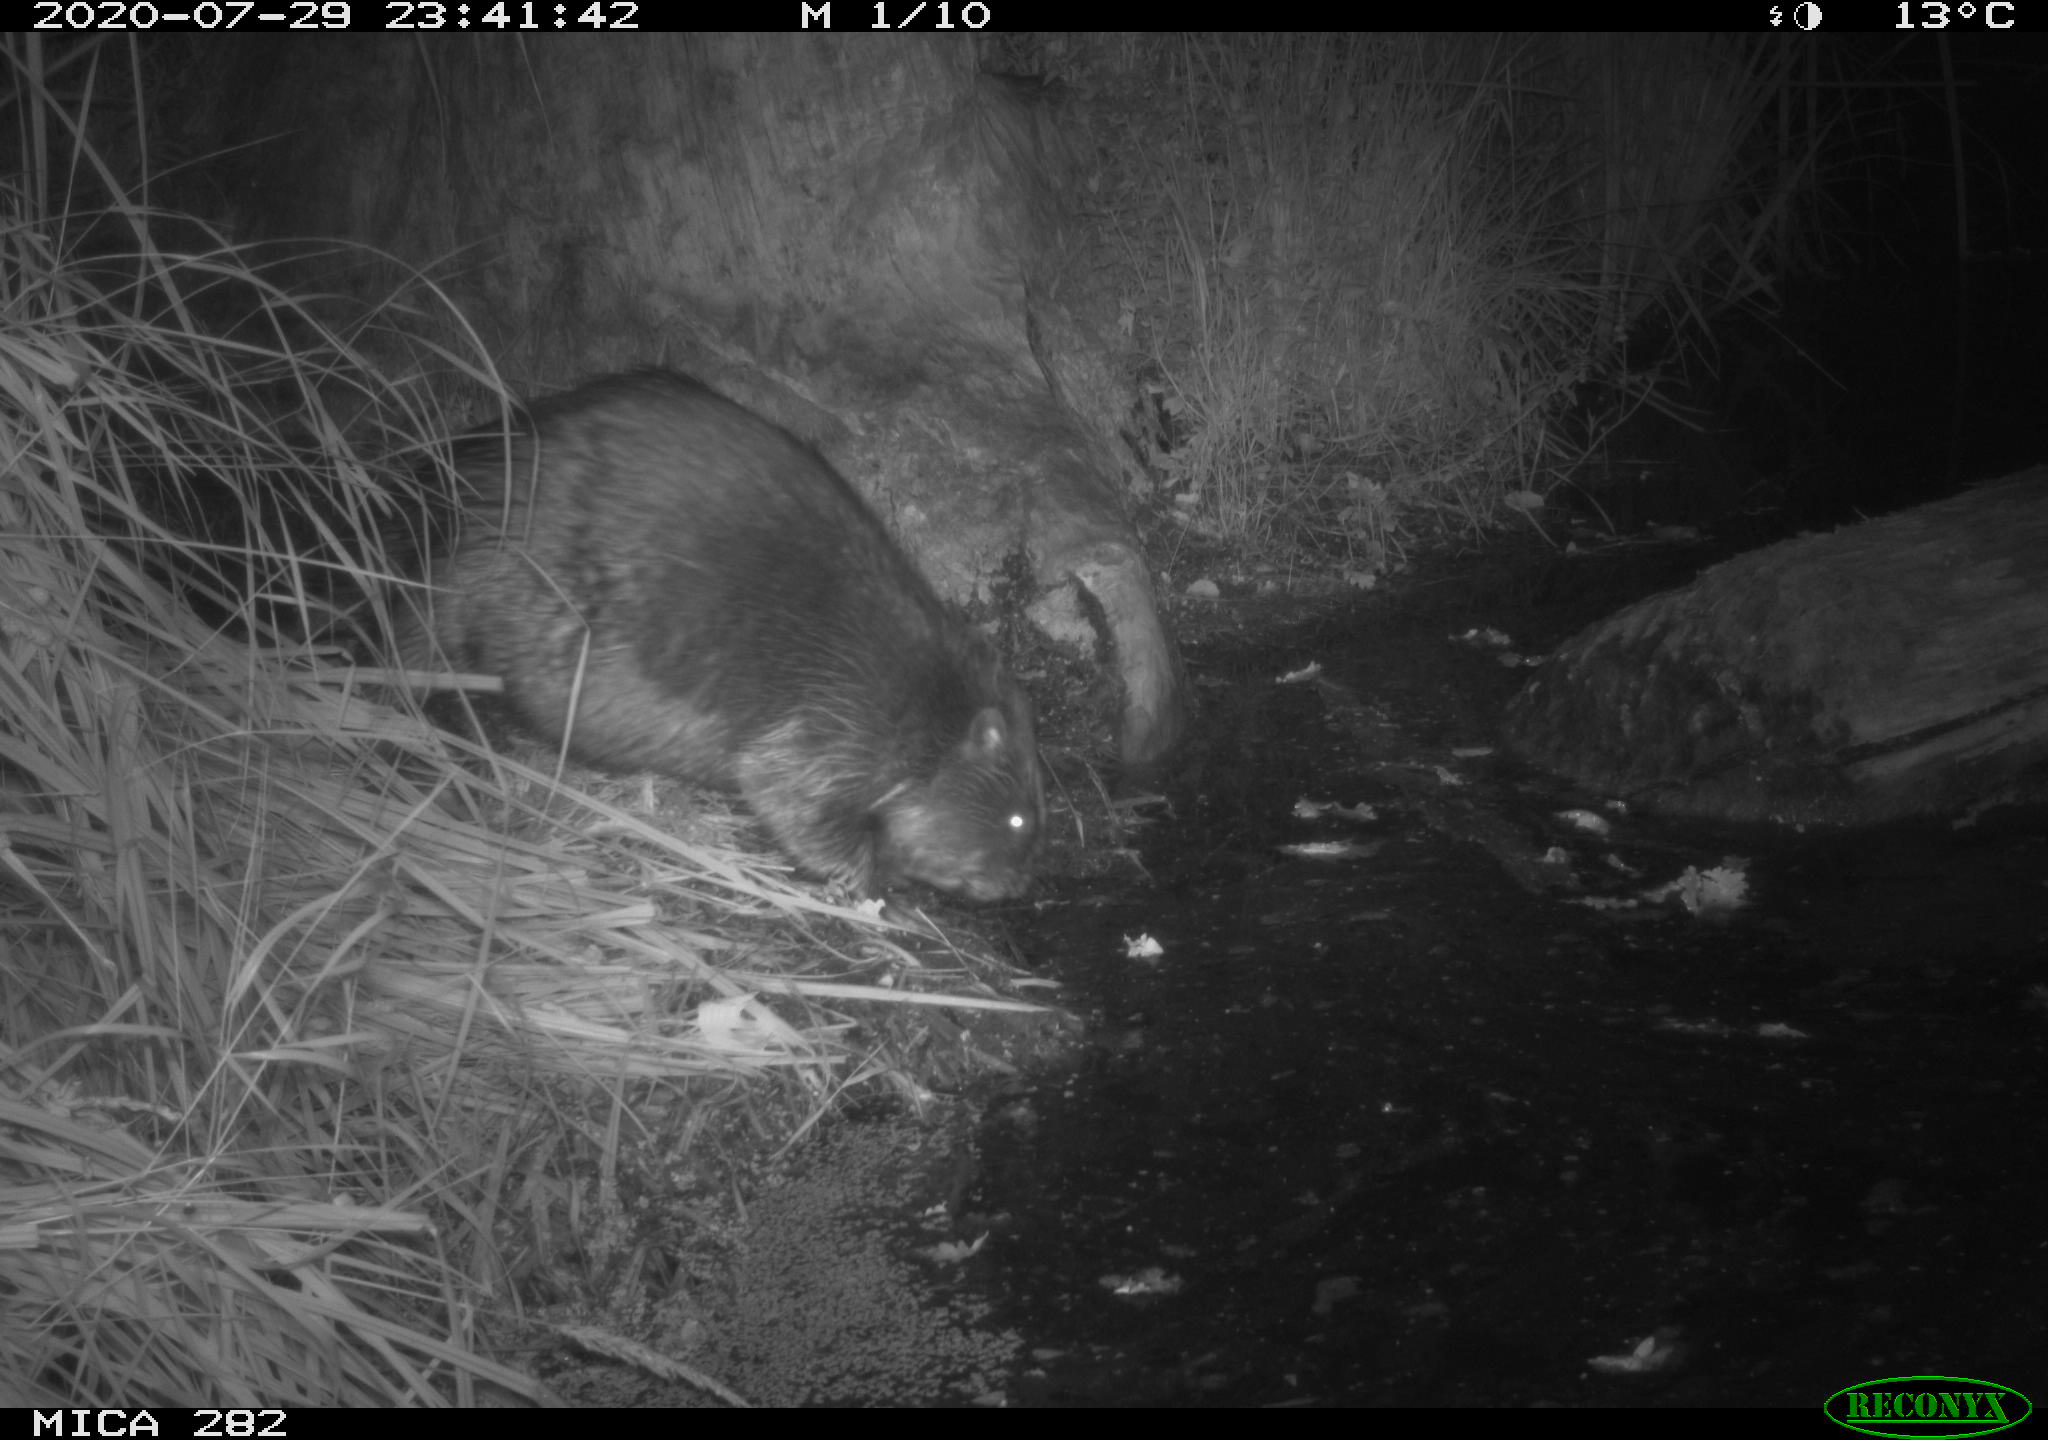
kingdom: Animalia
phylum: Chordata
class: Mammalia
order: Rodentia
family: Castoridae
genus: Castor
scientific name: Castor fiber
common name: Eurasian beaver
